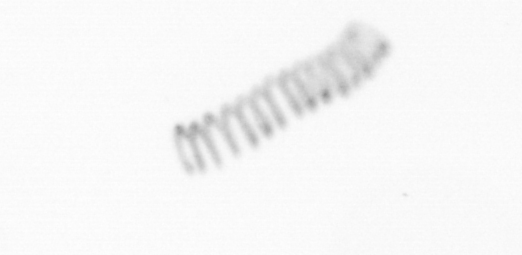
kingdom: Chromista
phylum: Ochrophyta
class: Bacillariophyceae
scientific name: Bacillariophyceae
